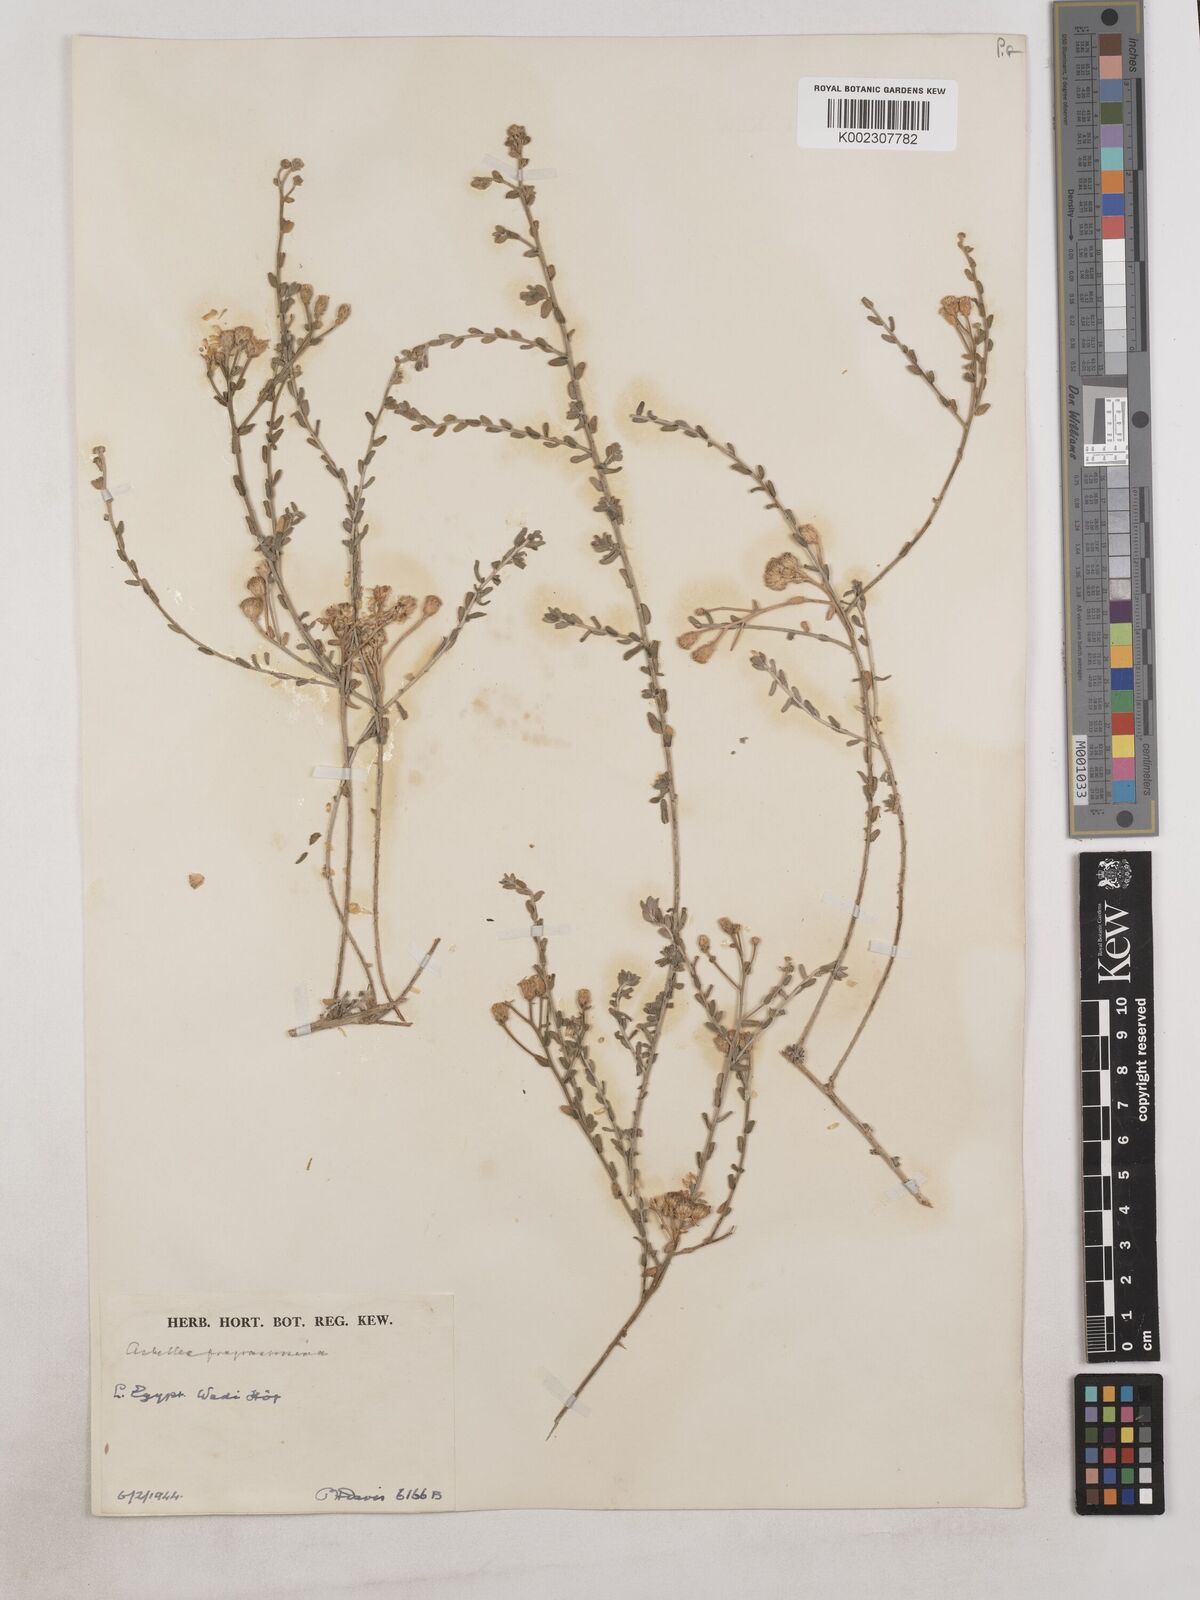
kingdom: Plantae
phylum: Tracheophyta
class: Magnoliopsida
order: Asterales
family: Asteraceae
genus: Achillea
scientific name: Achillea fragrantissima
